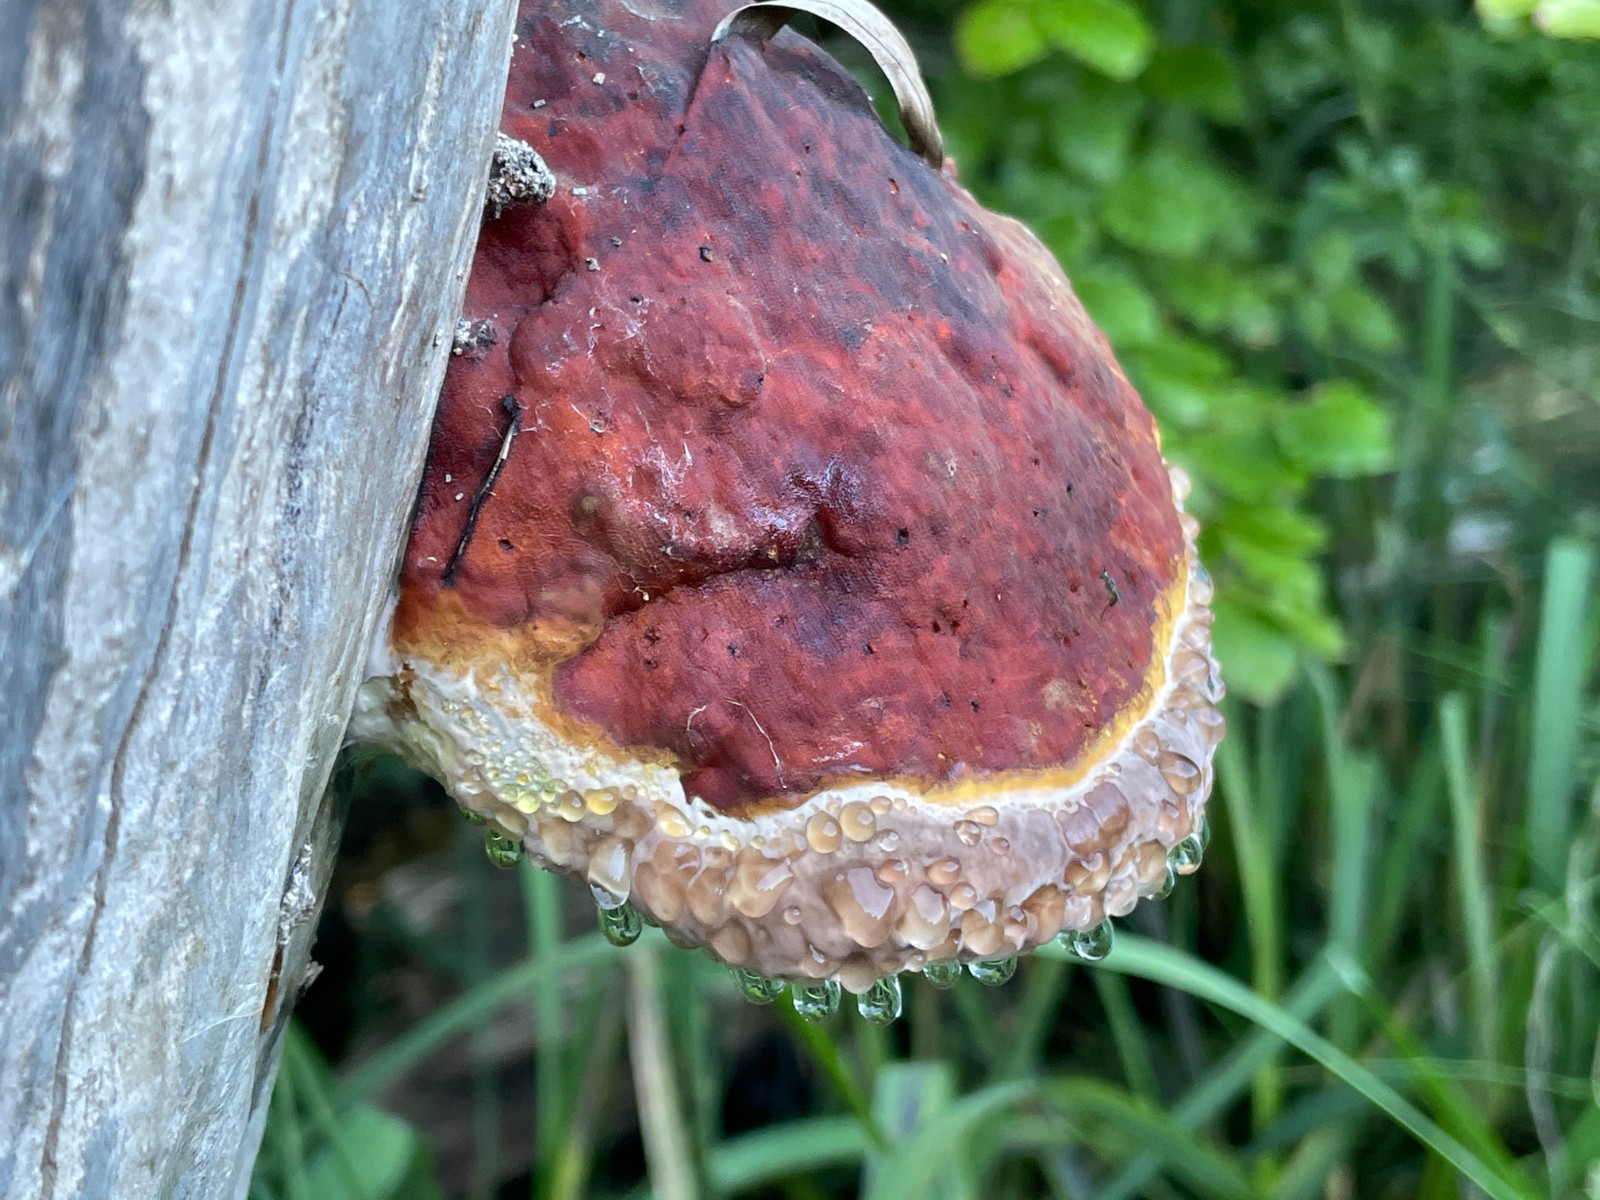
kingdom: Fungi
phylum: Basidiomycota
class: Agaricomycetes
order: Polyporales
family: Fomitopsidaceae
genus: Fomitopsis
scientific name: Fomitopsis pinicola
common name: randbæltet hovporesvamp
